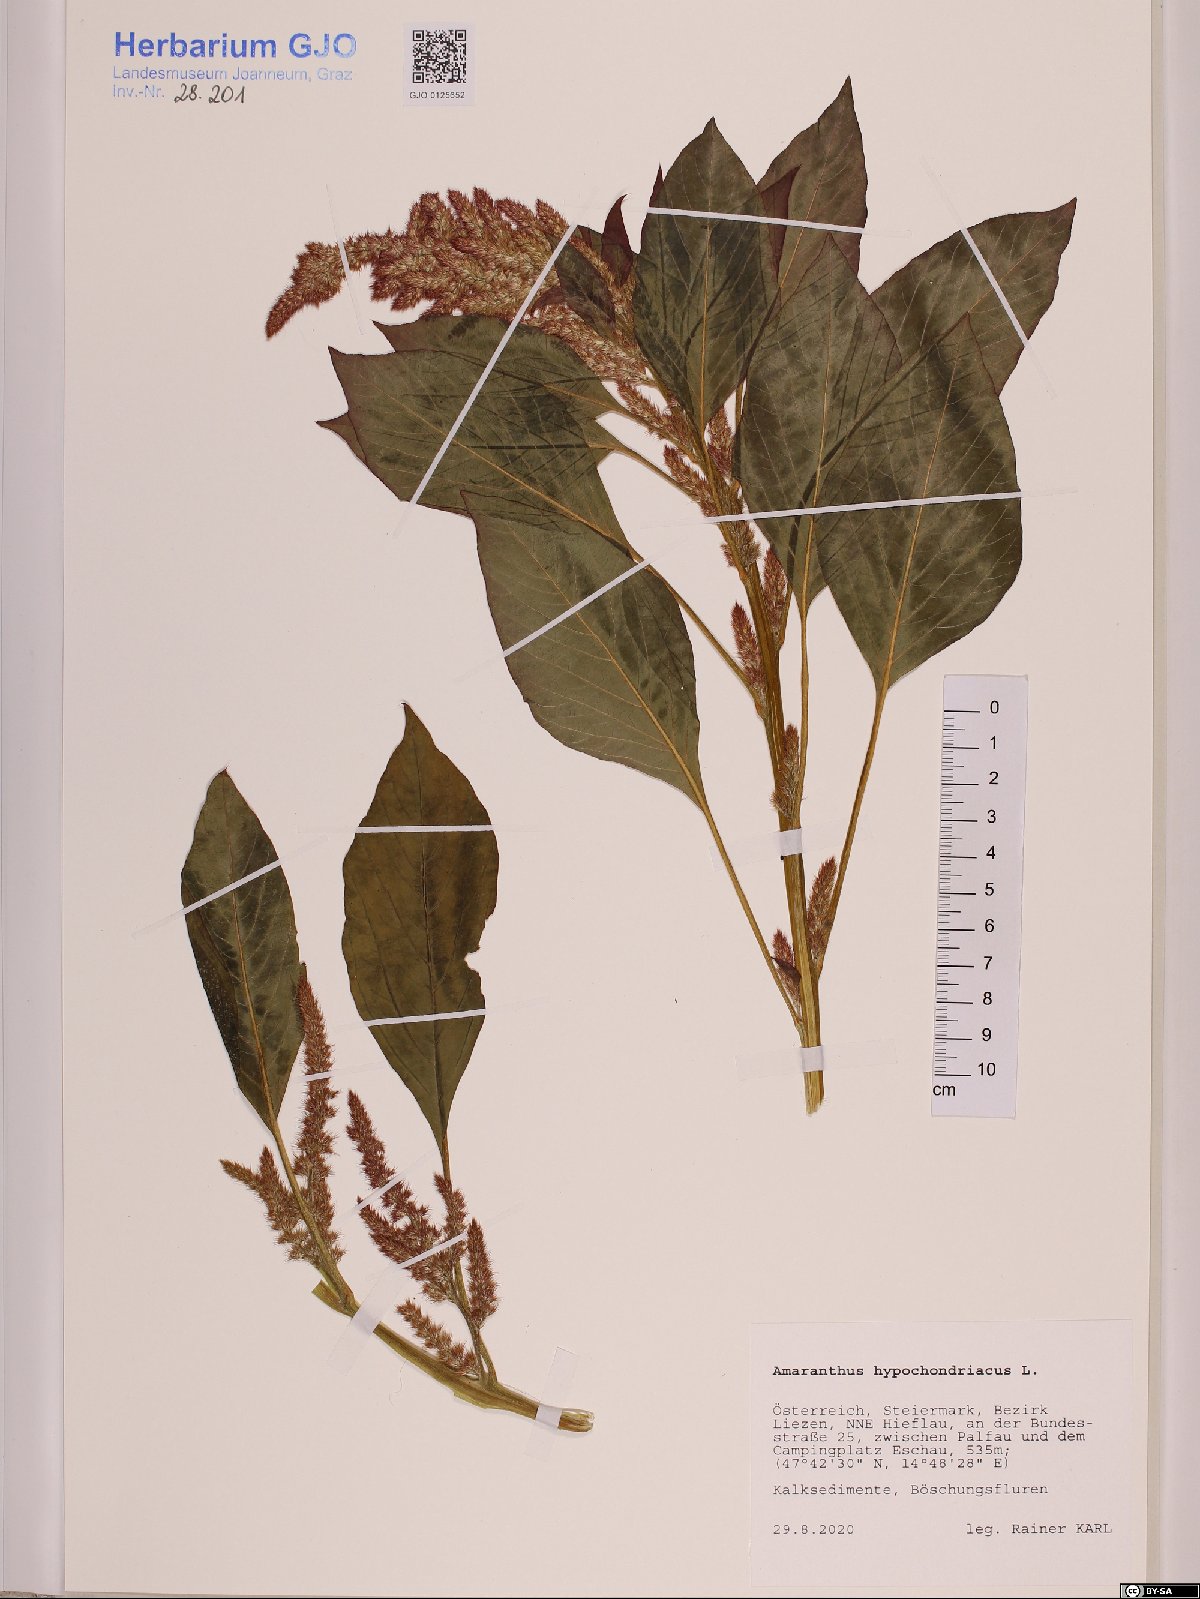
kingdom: Plantae
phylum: Tracheophyta
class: Magnoliopsida
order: Caryophyllales
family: Amaranthaceae
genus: Amaranthus
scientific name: Amaranthus hypochondriacus
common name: Prince's-feather
